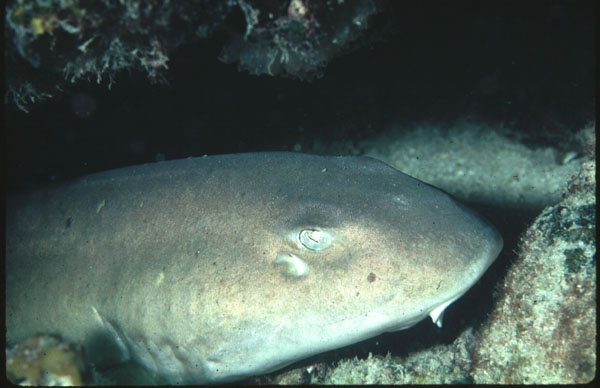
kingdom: Animalia
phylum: Chordata
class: Elasmobranchii
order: Orectolobiformes
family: Hemiscylliidae
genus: Chiloscyllium
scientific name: Chiloscyllium arabicum
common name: Arabian carpetshark
